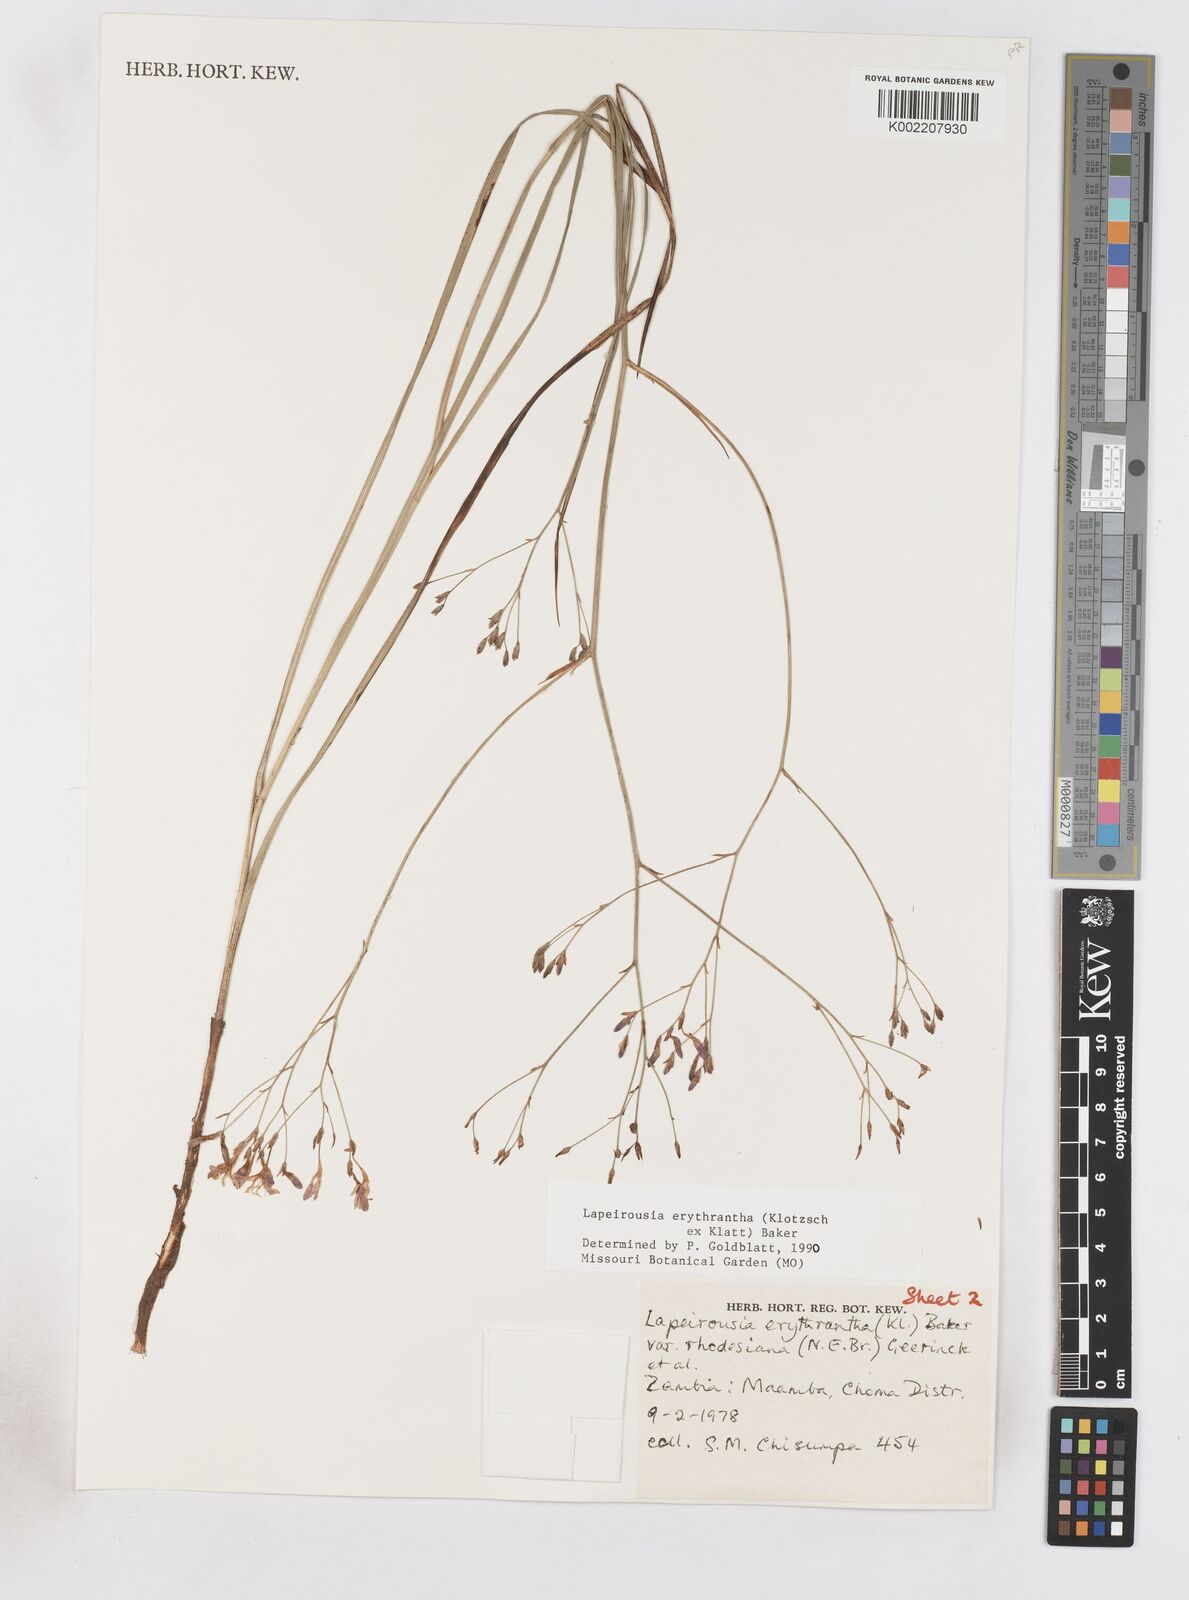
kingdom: Plantae
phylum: Tracheophyta
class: Liliopsida
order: Asparagales
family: Iridaceae
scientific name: Iridaceae
